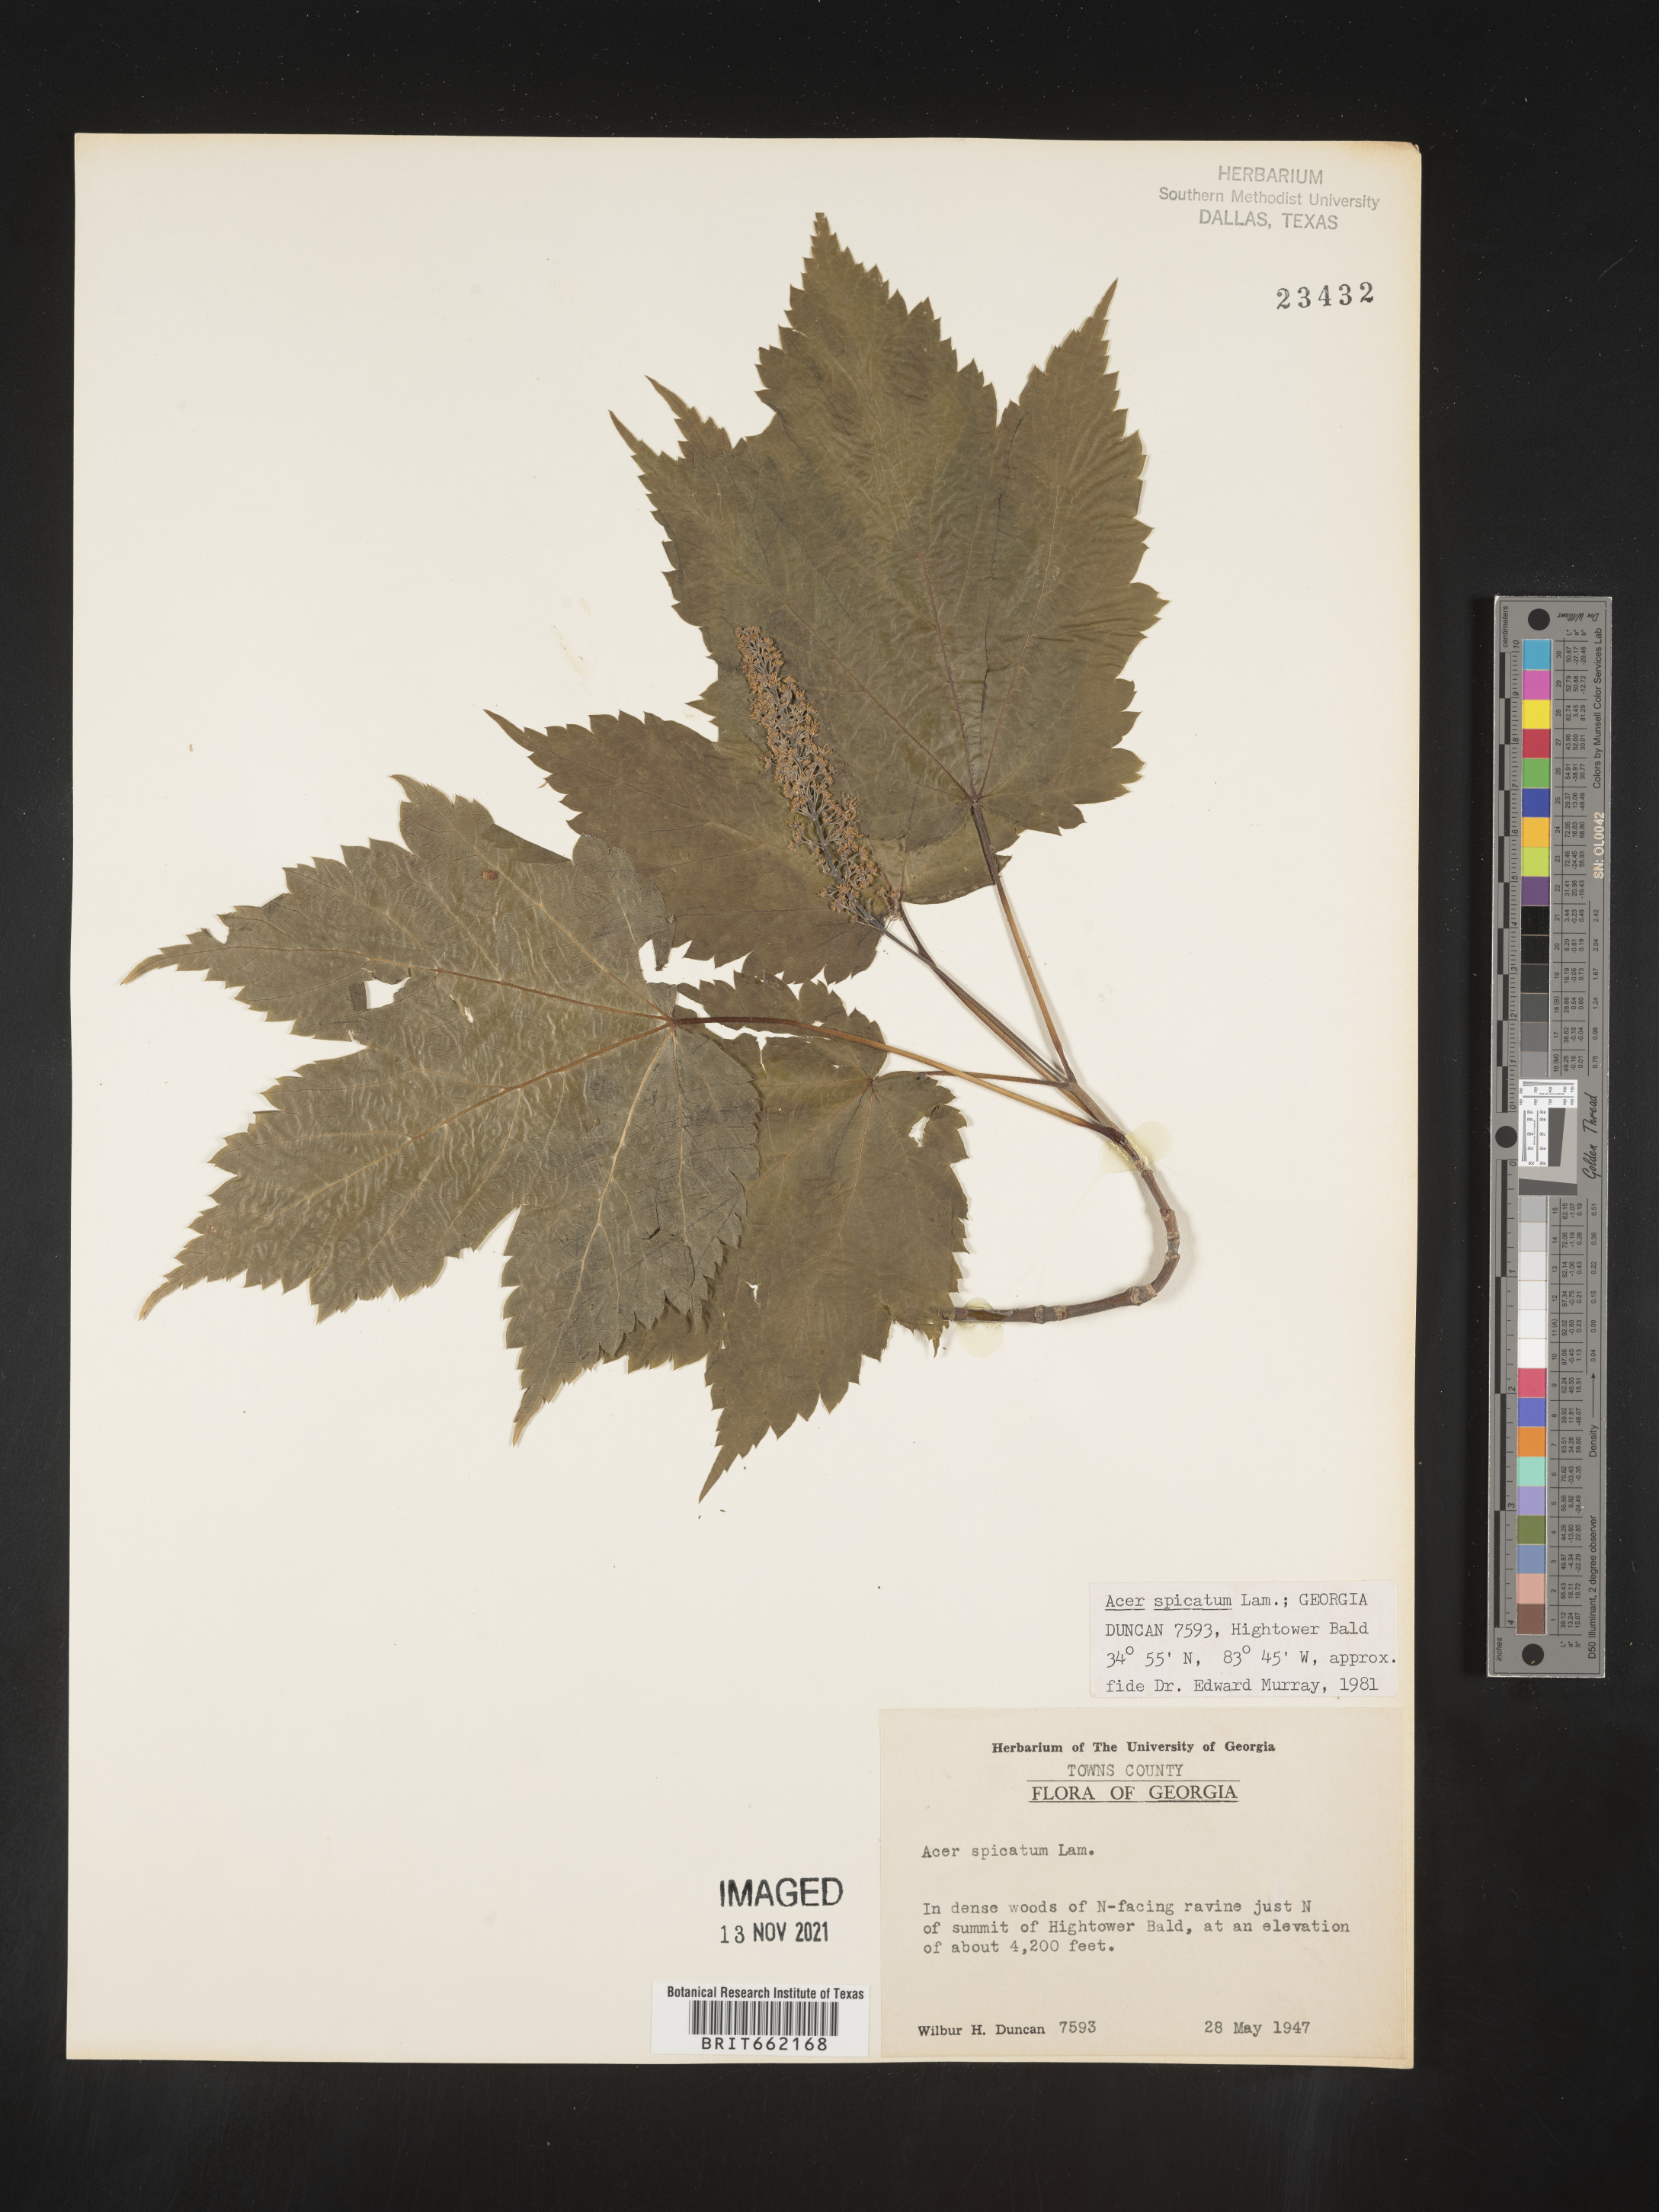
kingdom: Plantae
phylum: Tracheophyta
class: Magnoliopsida
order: Sapindales
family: Sapindaceae
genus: Acer
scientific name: Acer spicatum
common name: Mountain maple
